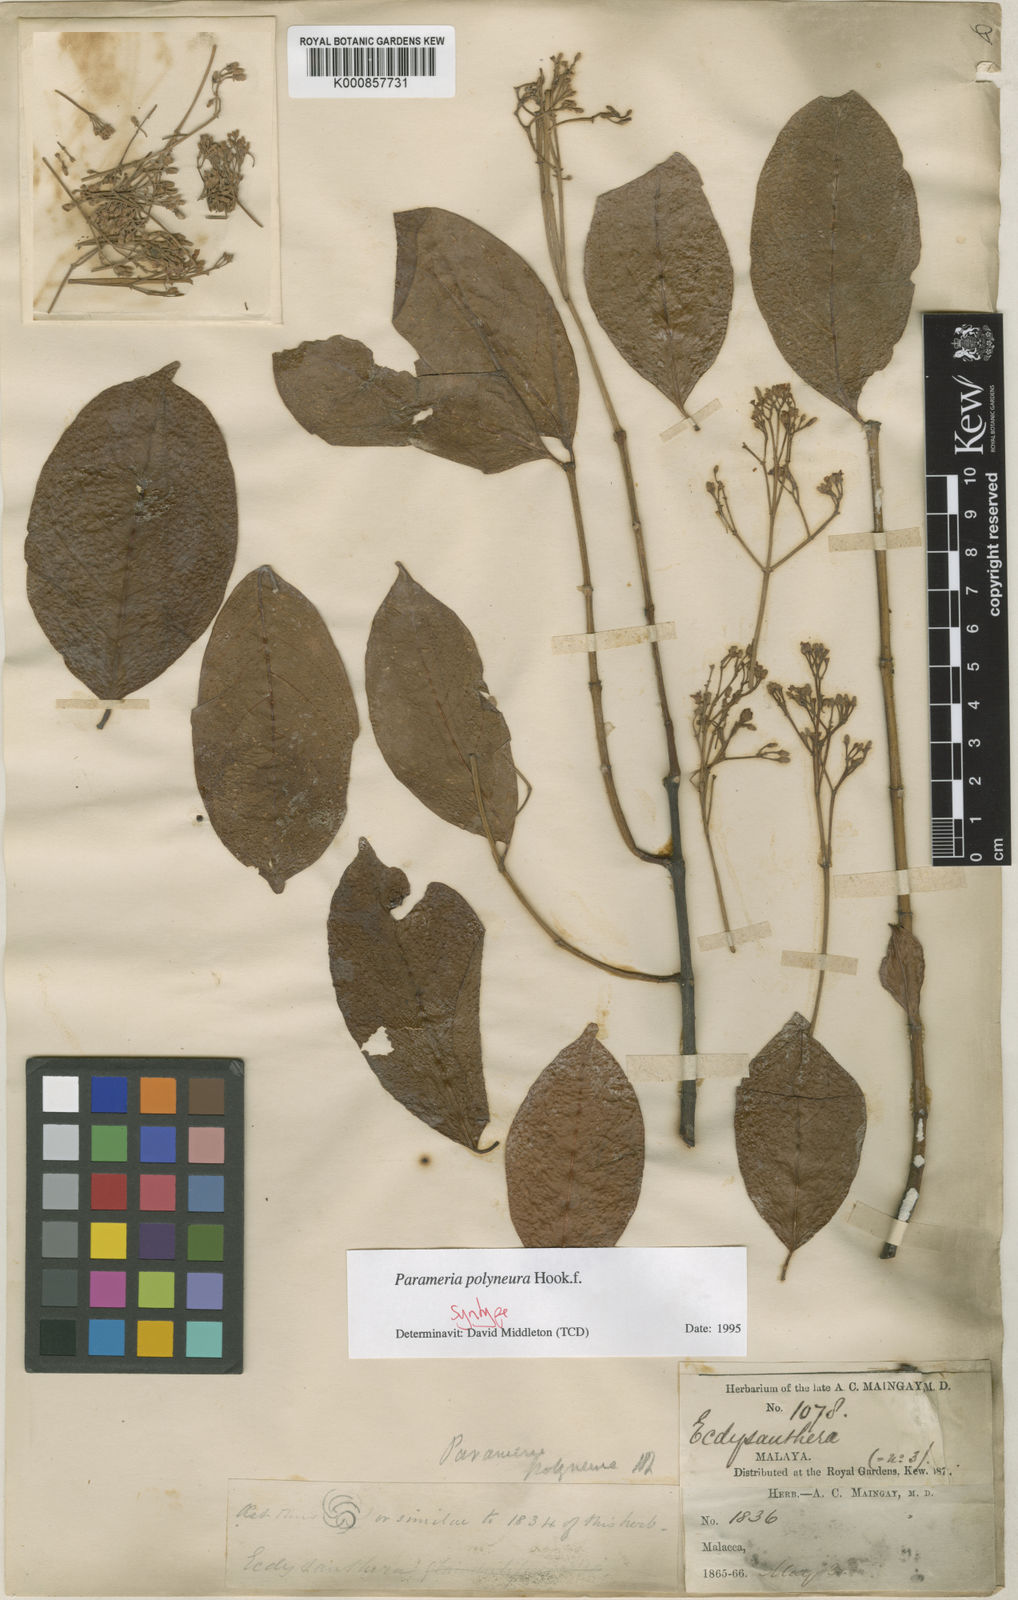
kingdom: Plantae
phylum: Tracheophyta
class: Magnoliopsida
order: Gentianales
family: Apocynaceae
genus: Urceola
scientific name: Urceola polyneura
